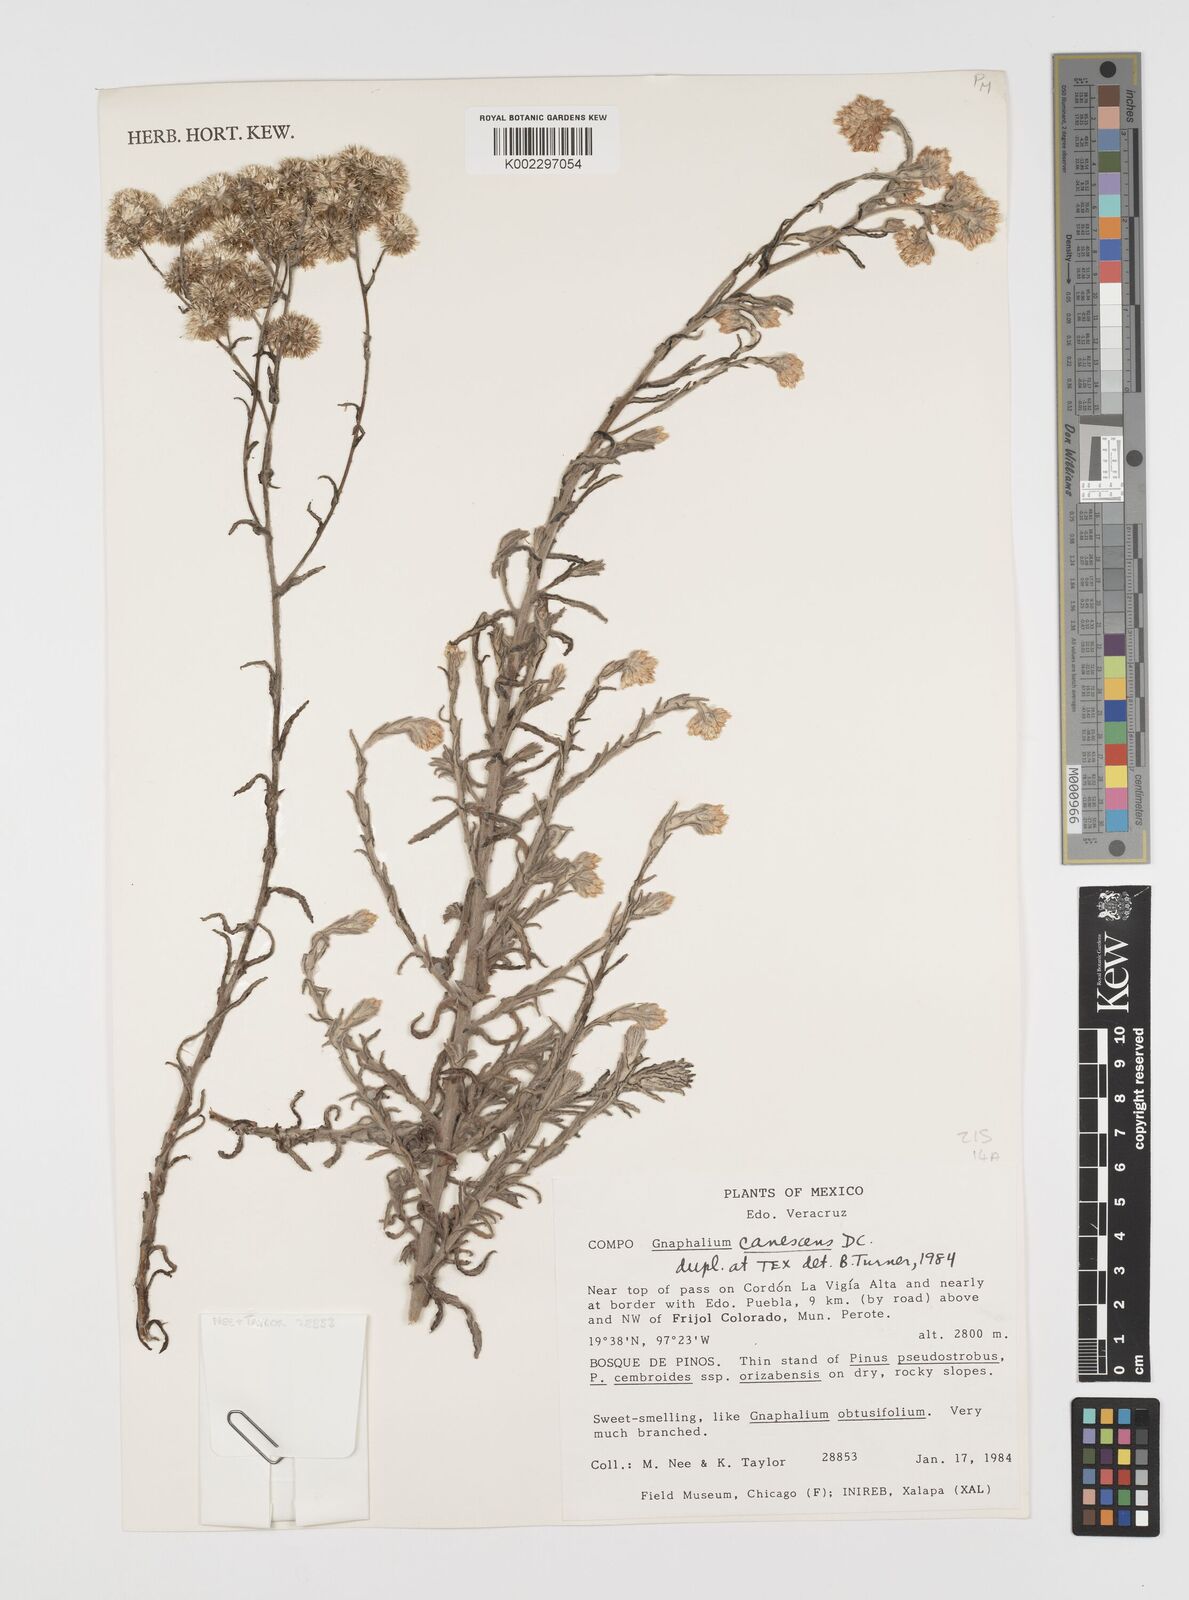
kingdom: Plantae
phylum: Tracheophyta
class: Magnoliopsida
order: Asterales
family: Asteraceae
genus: Pseudognaphalium
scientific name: Pseudognaphalium canescens
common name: Wright's rabbit-tobacco
